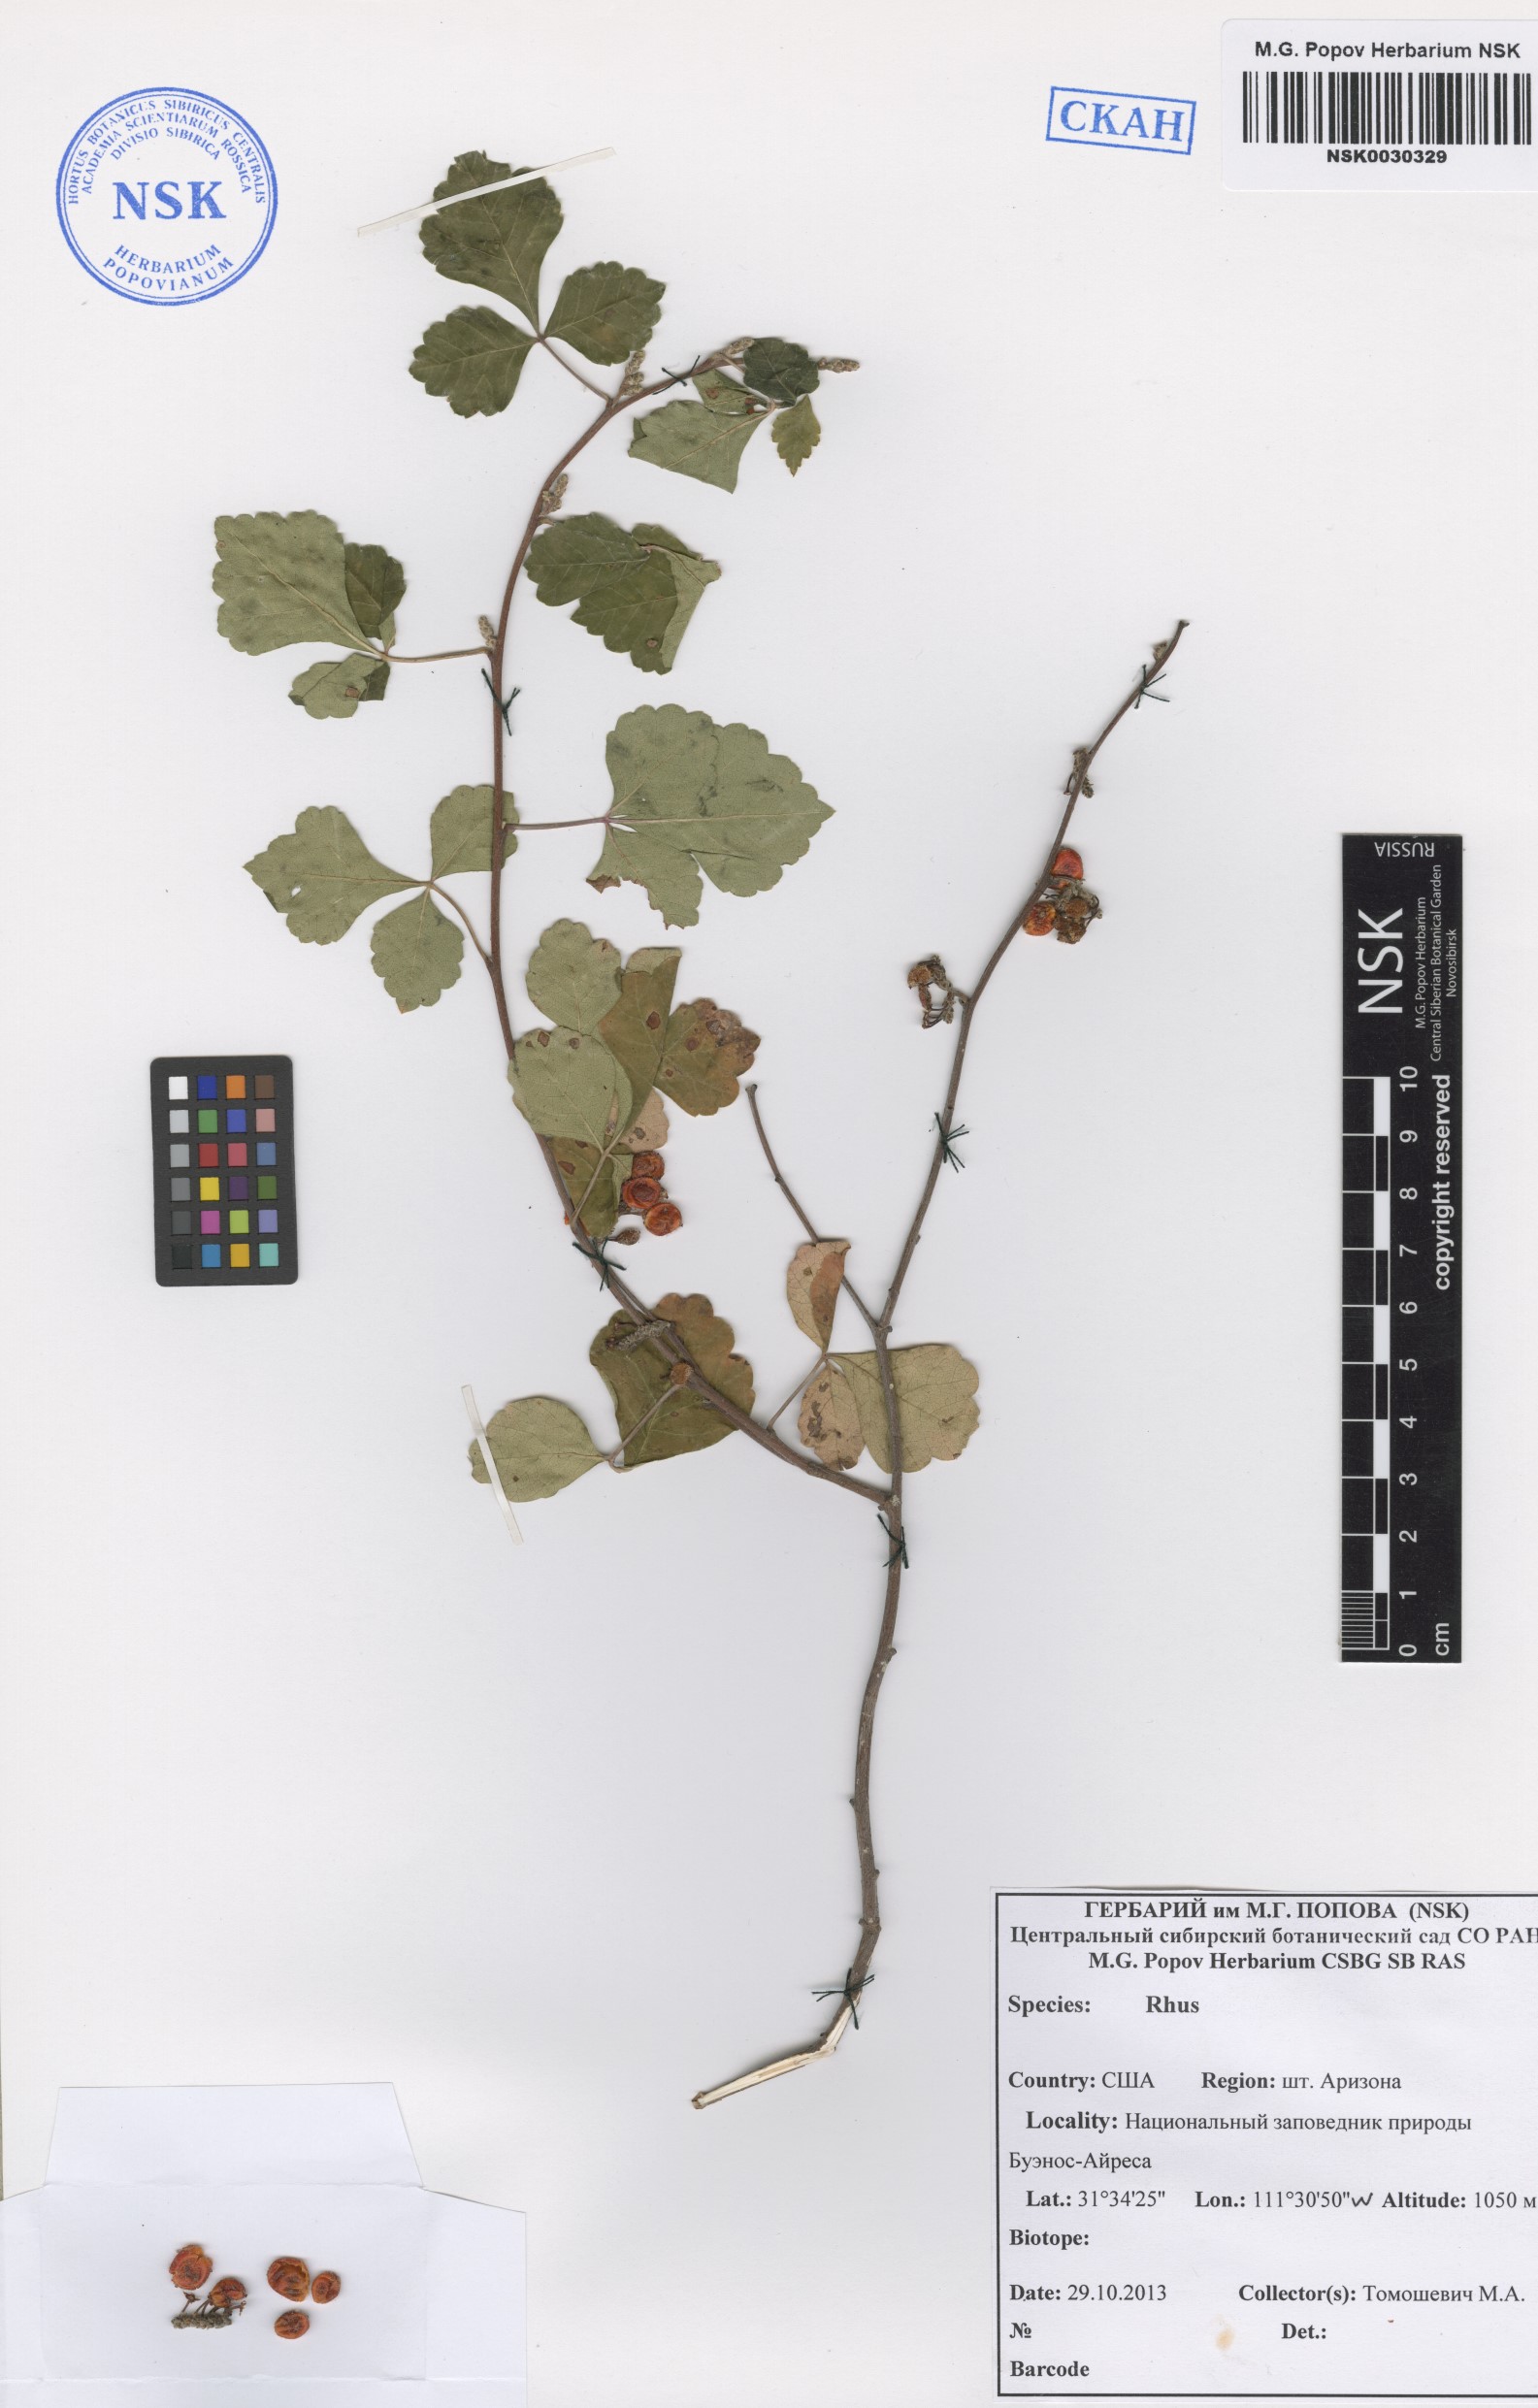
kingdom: Plantae
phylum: Tracheophyta
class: Magnoliopsida
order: Sapindales
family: Anacardiaceae
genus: Rhus
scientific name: Rhus
